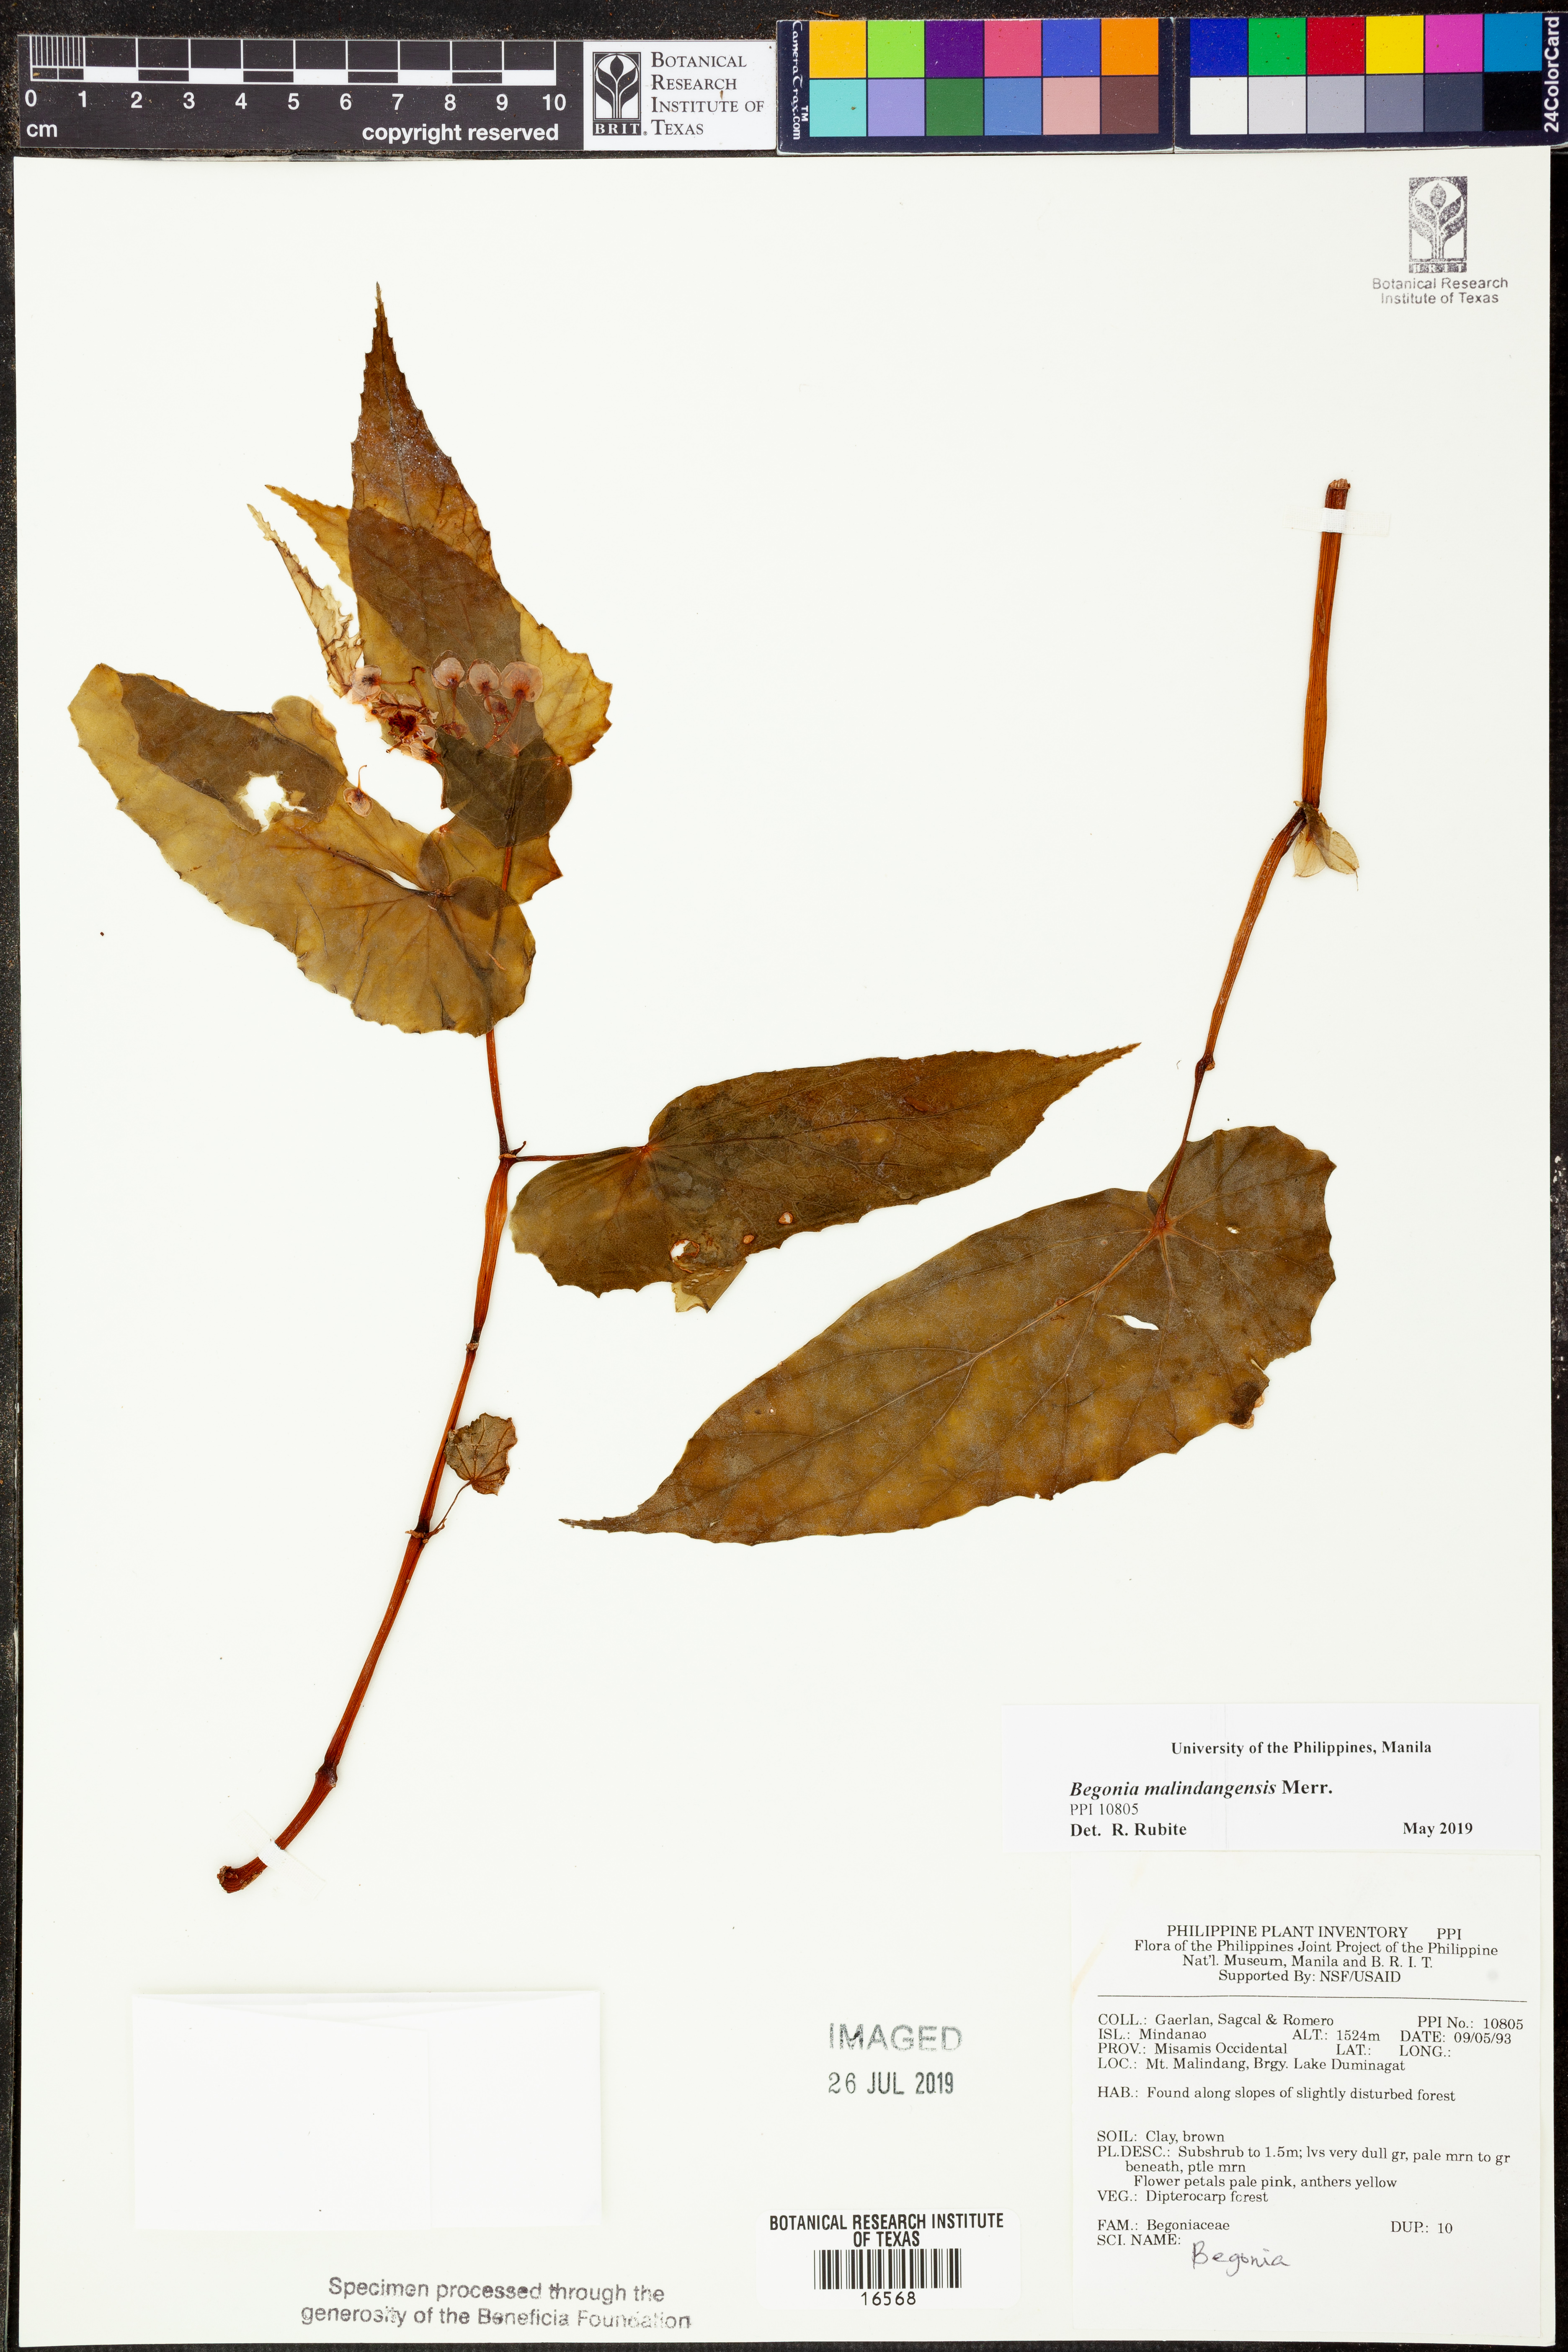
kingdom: Plantae
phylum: Tracheophyta
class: Magnoliopsida
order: Cucurbitales
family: Begoniaceae
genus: Begonia
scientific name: Begonia malindangensis
